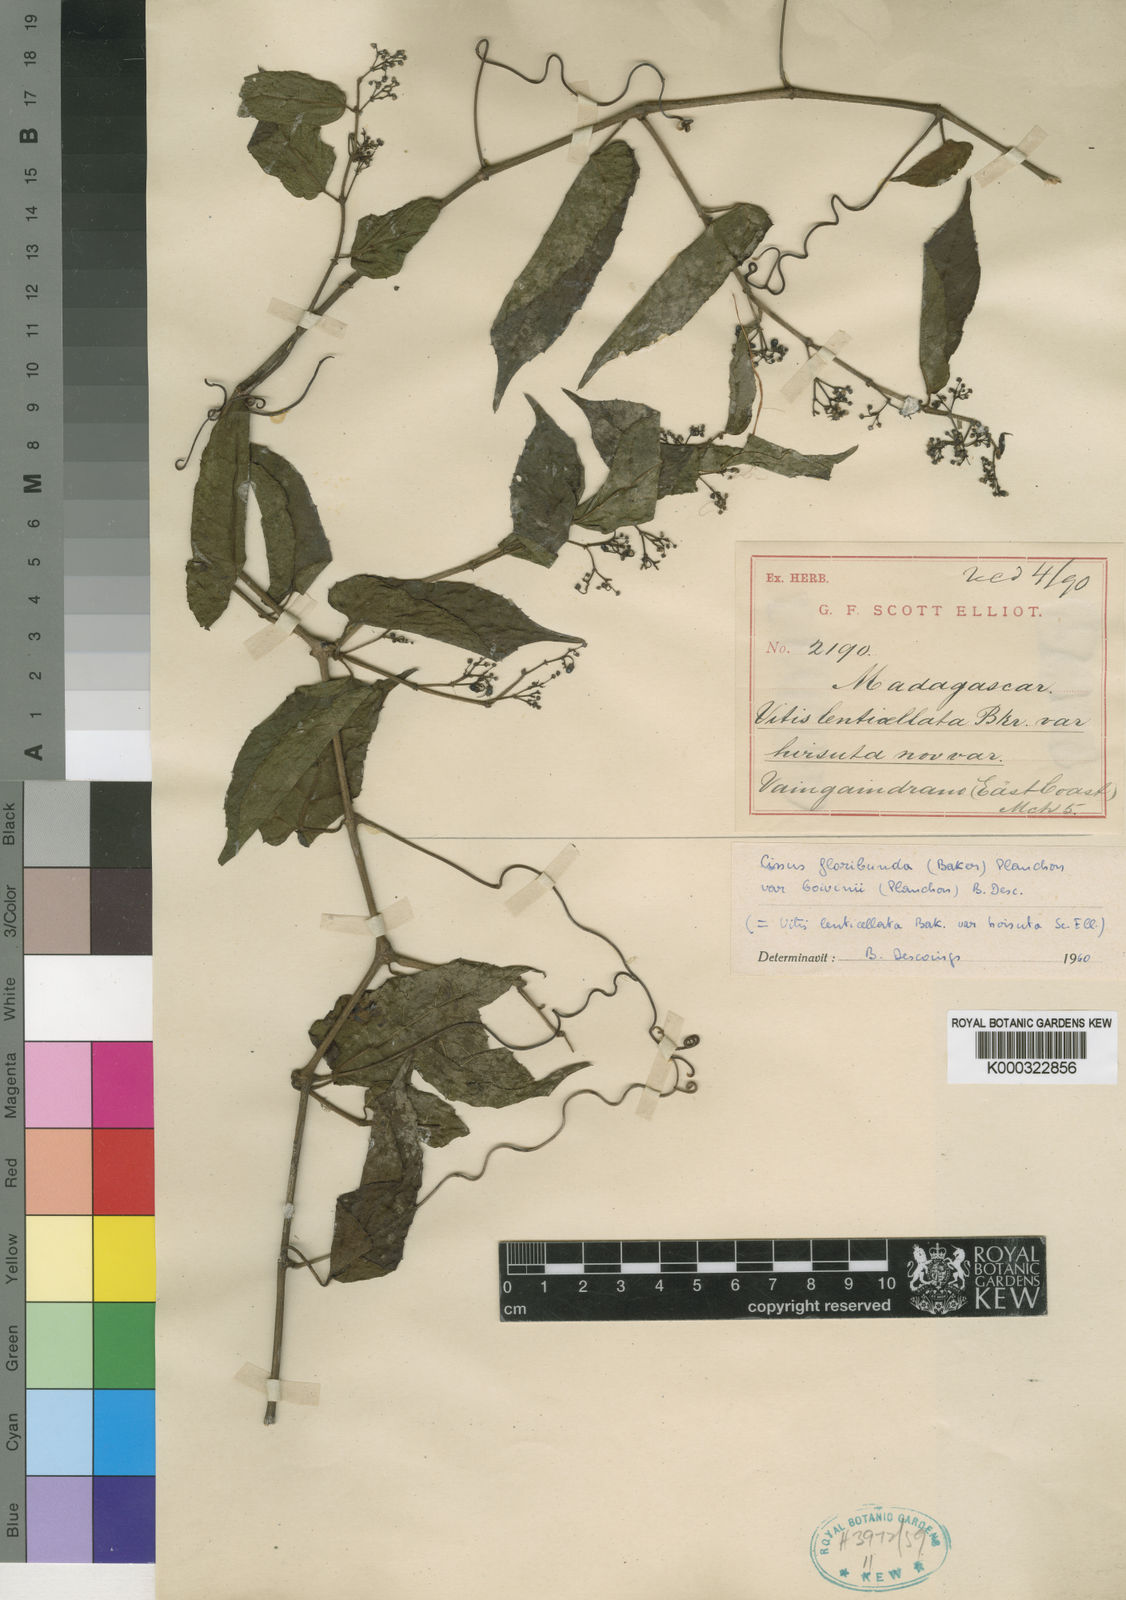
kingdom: Plantae
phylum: Tracheophyta
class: Magnoliopsida
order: Vitales
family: Vitaceae
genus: Cissus
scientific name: Cissus floribunda
